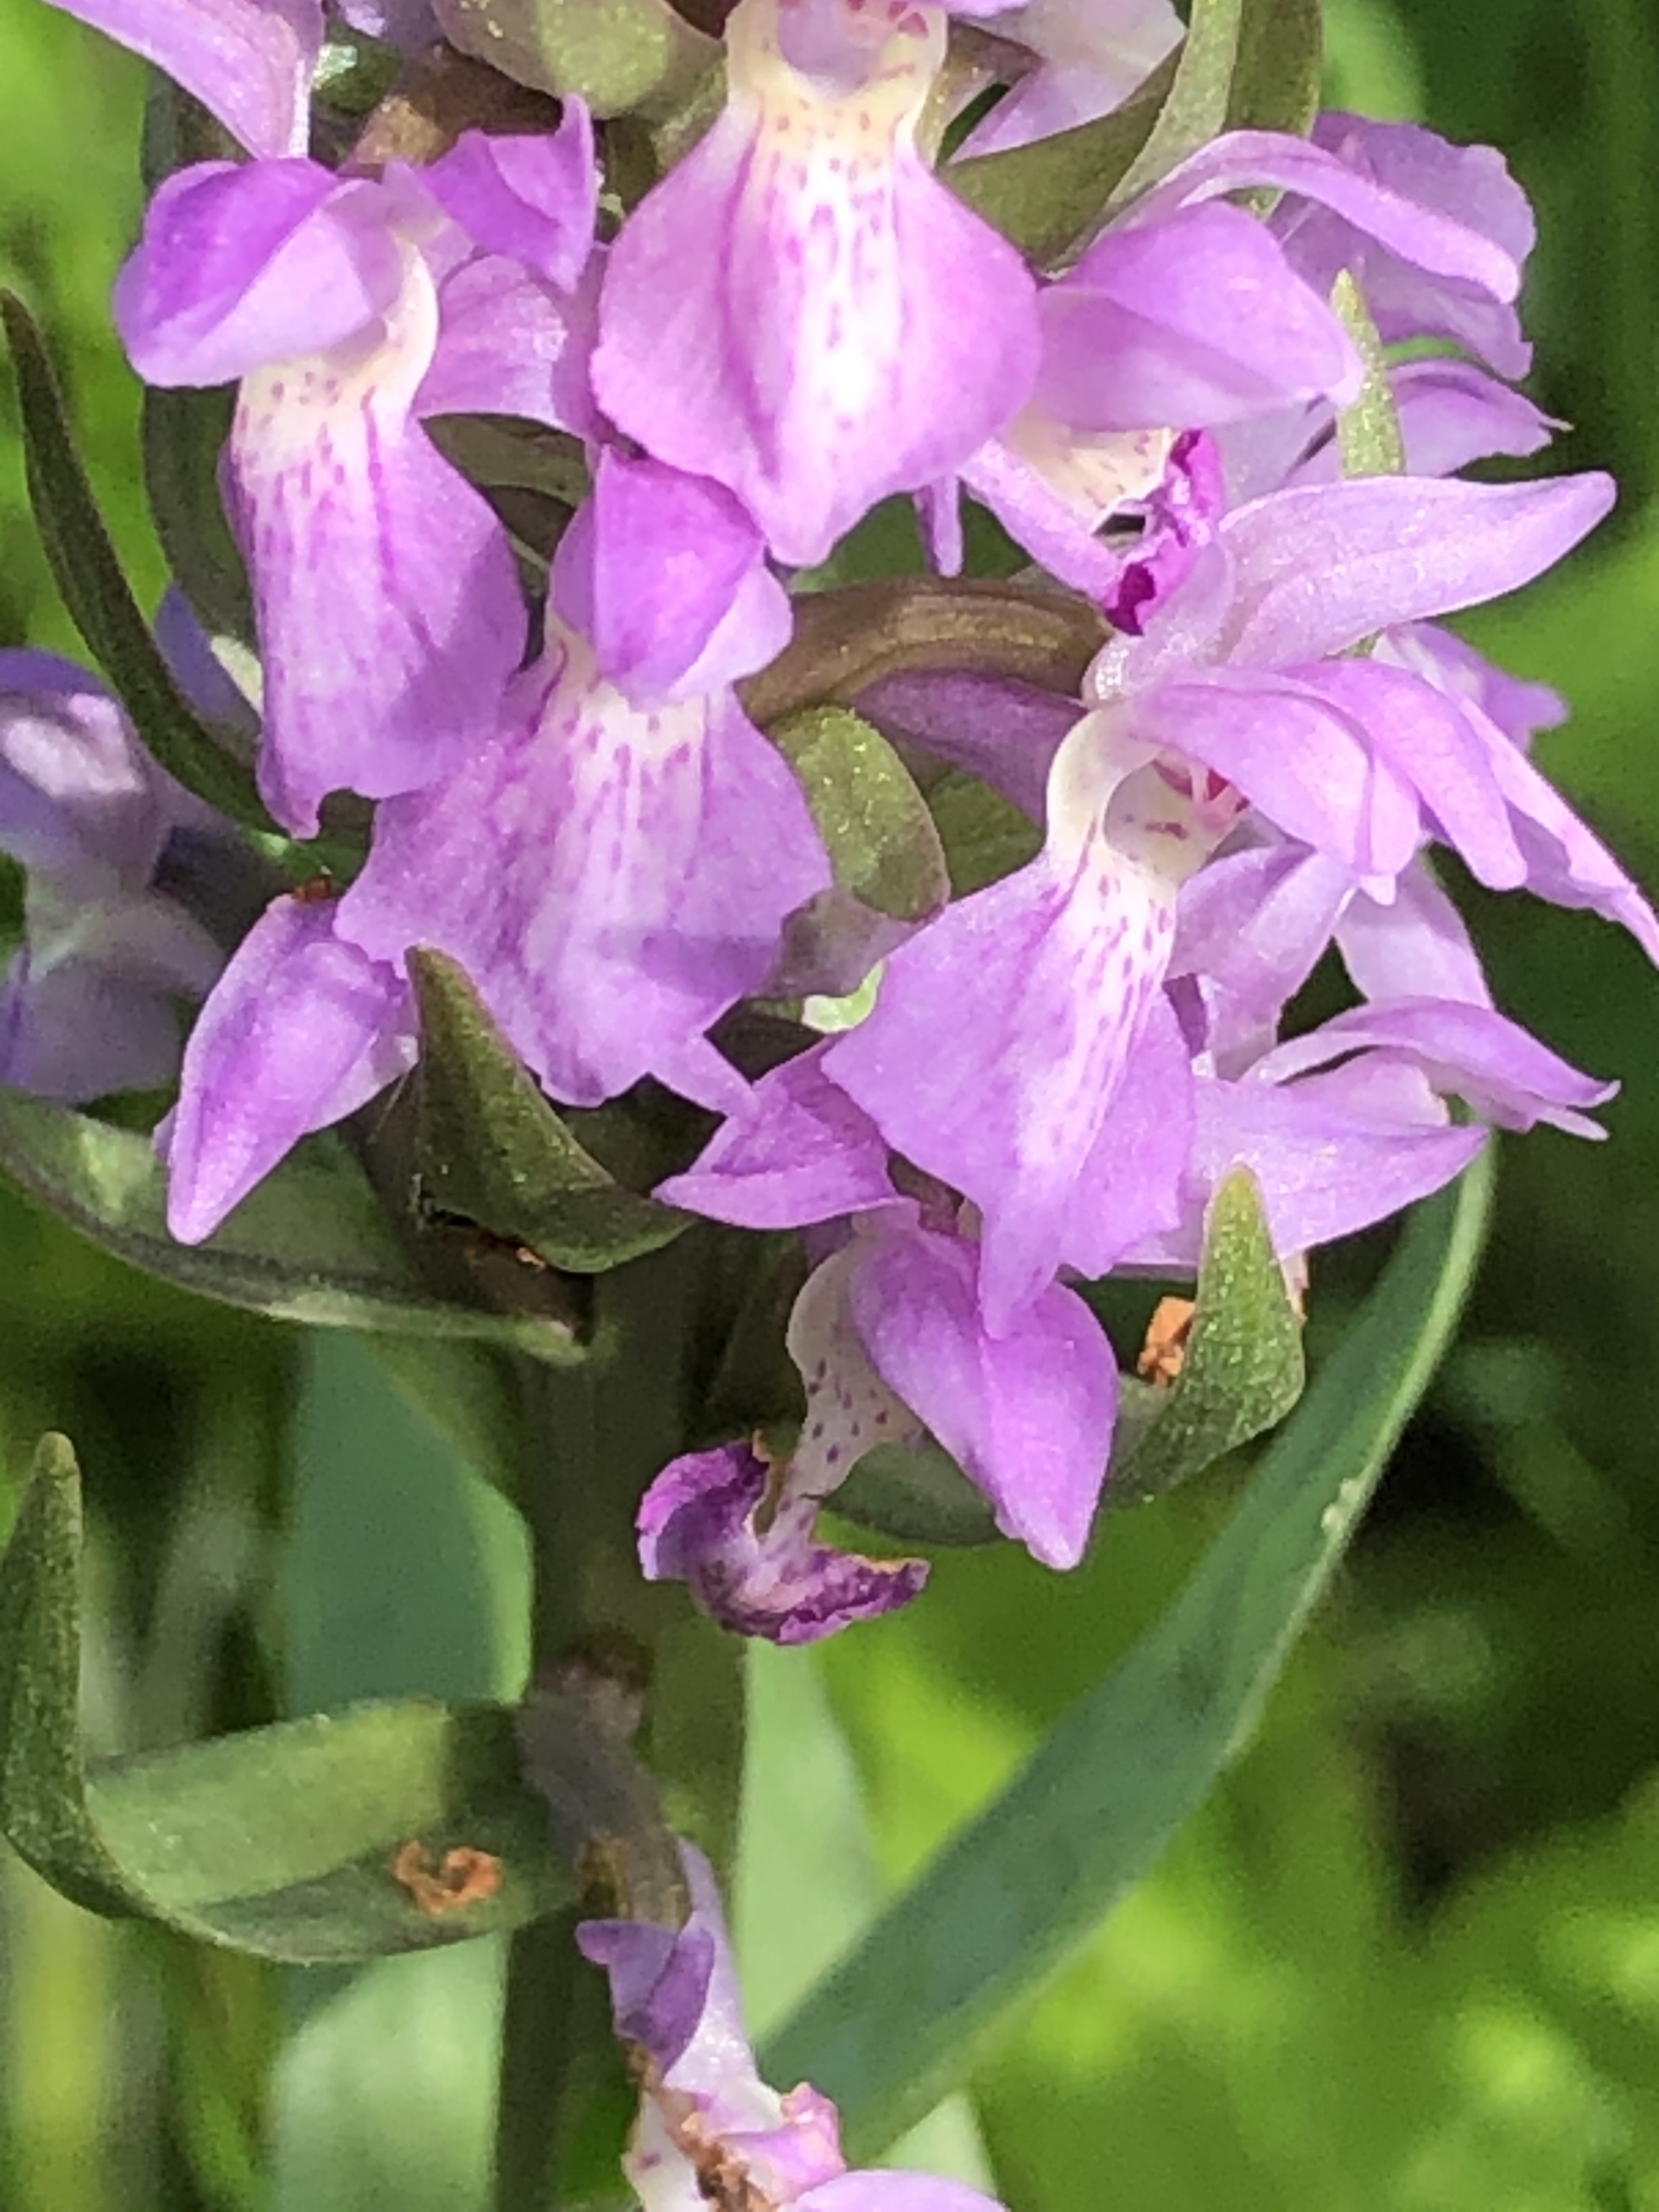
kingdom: Plantae
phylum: Tracheophyta
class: Liliopsida
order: Asparagales
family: Orchidaceae
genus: Dactylorhiza
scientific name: Dactylorhiza majalis
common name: Maj-gøgeurt
